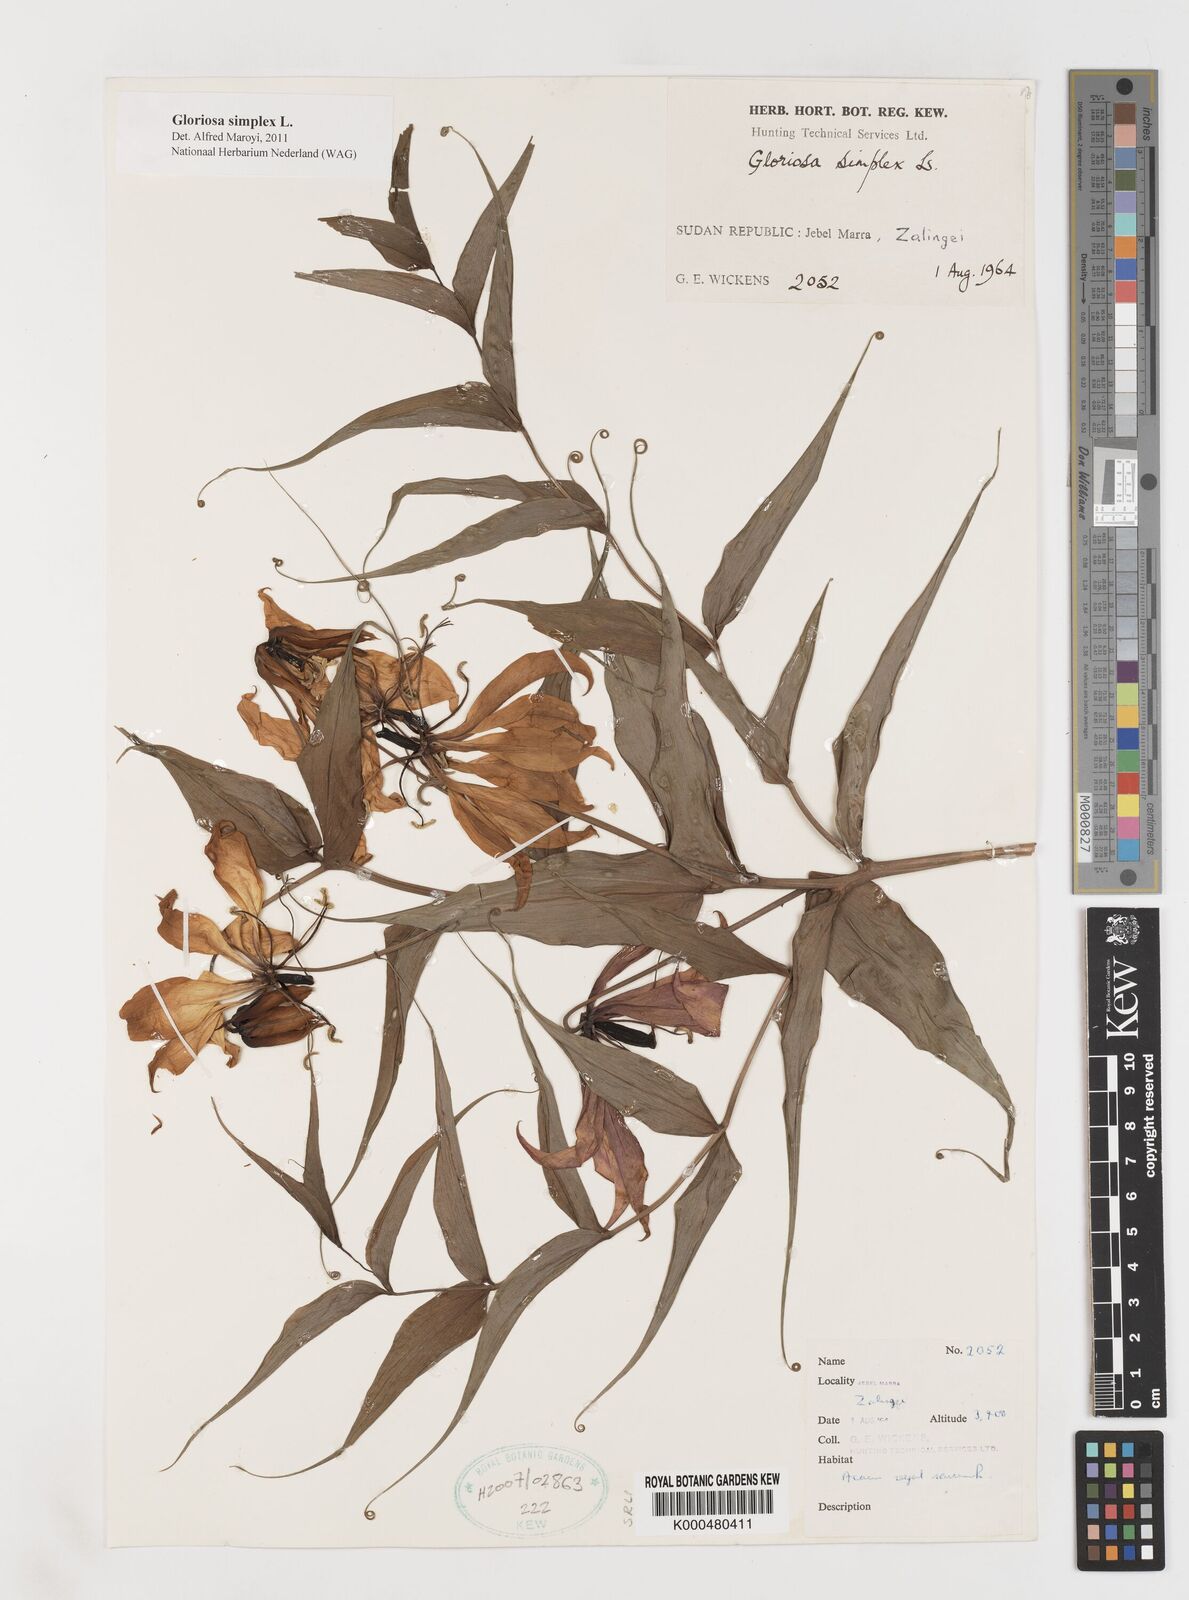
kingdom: Plantae
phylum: Tracheophyta
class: Liliopsida
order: Liliales
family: Colchicaceae
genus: Gloriosa
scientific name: Gloriosa simplex
